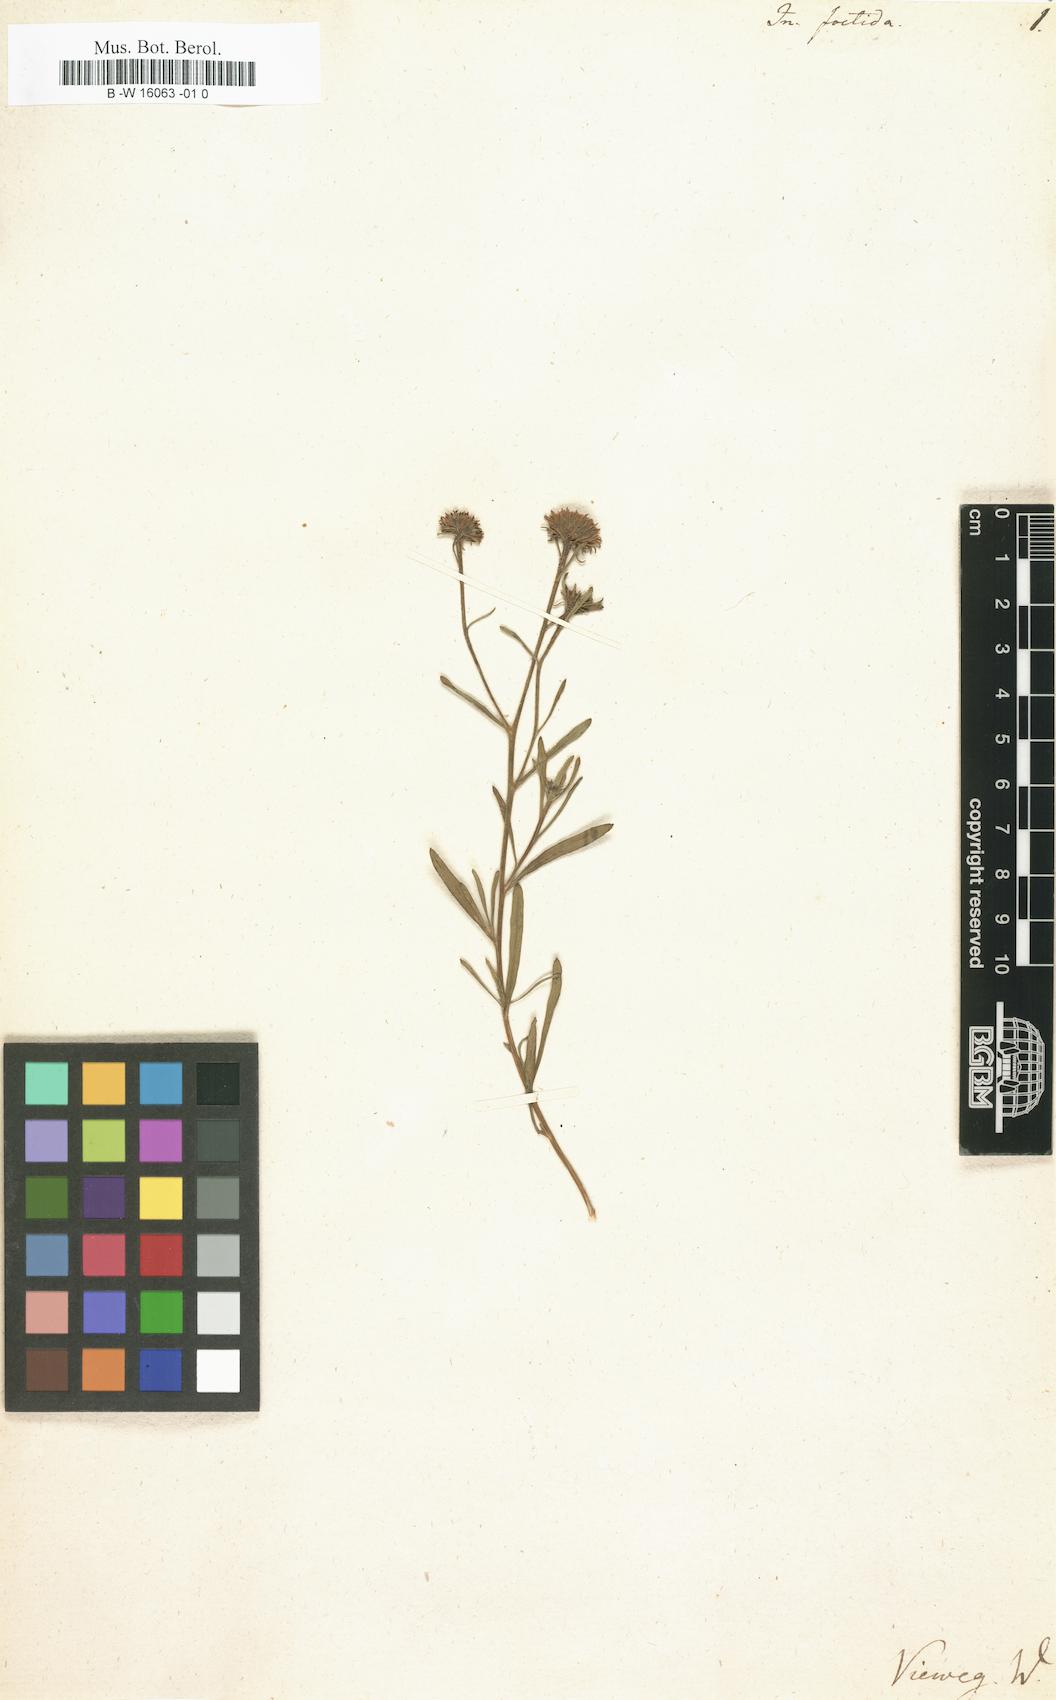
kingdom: Plantae
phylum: Tracheophyta
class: Magnoliopsida
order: Asterales
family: Asteraceae
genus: Nidorella
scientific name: Nidorella foetida
